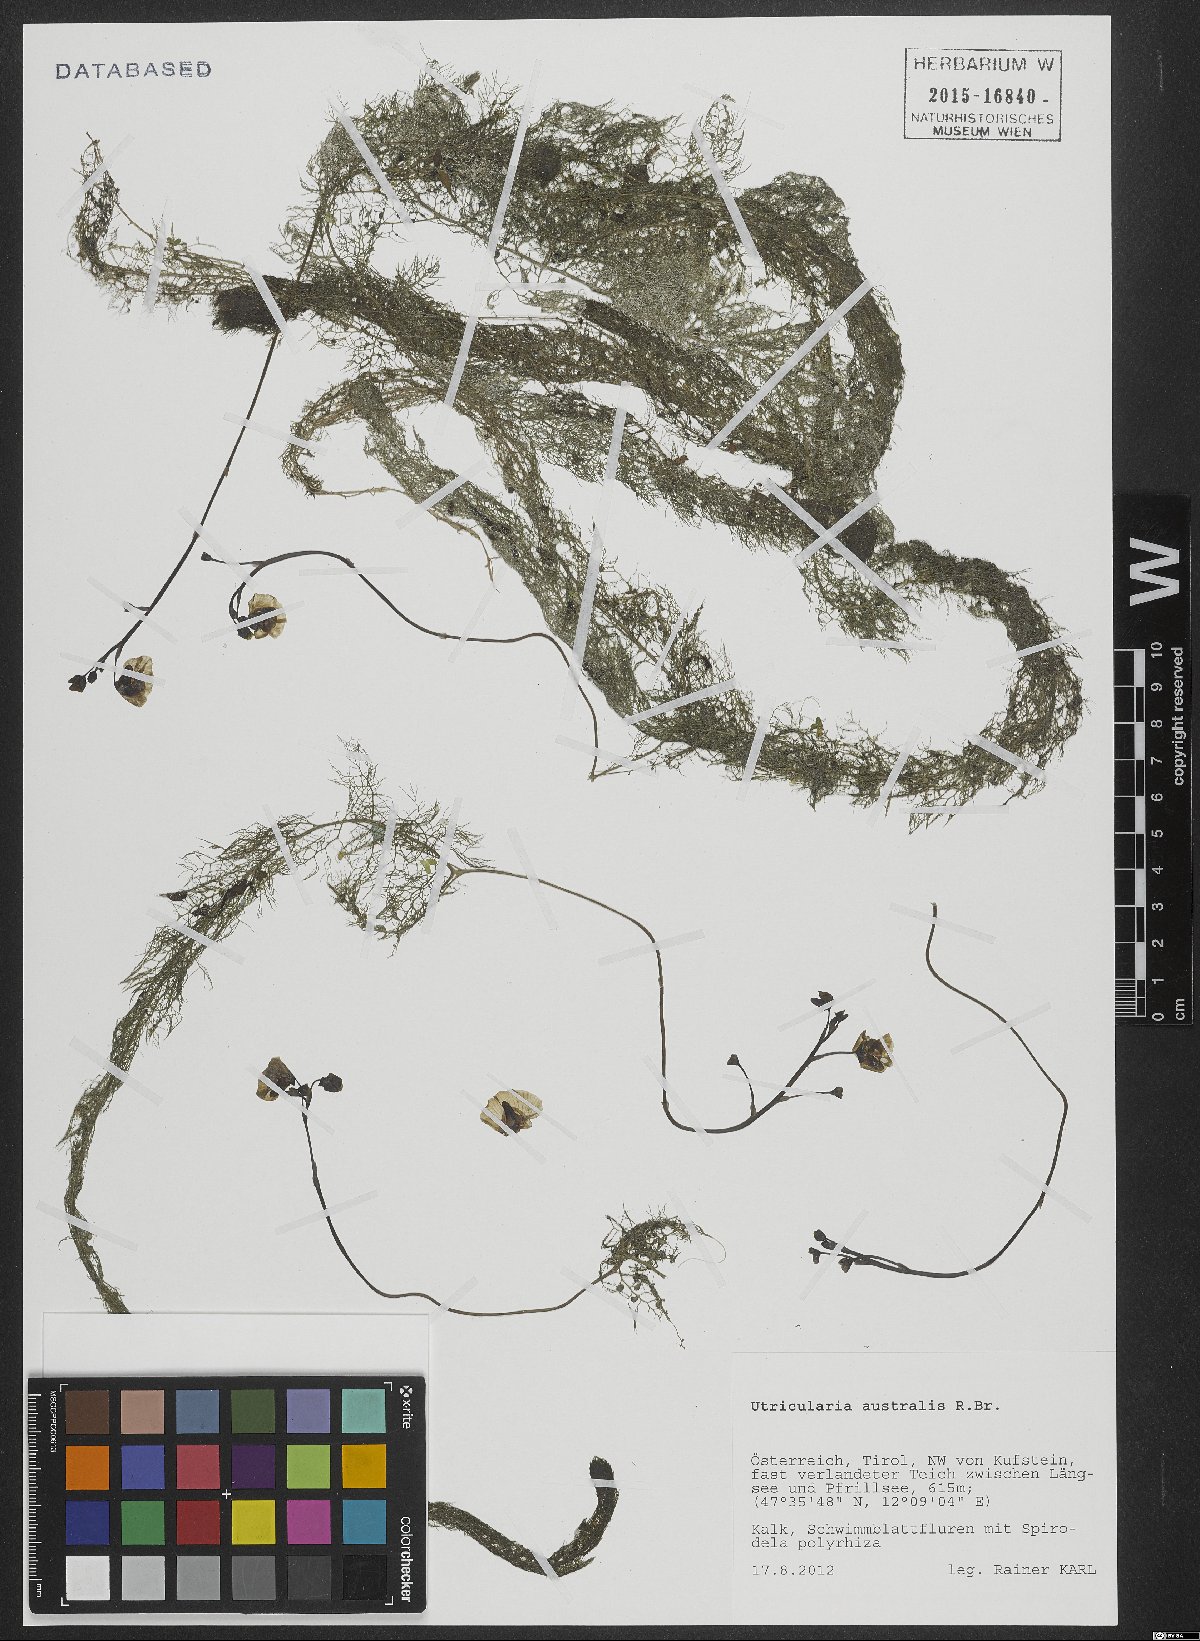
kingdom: Plantae
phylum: Tracheophyta
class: Magnoliopsida
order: Lamiales
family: Lentibulariaceae
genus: Utricularia
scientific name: Utricularia australis
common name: Bladderwort
